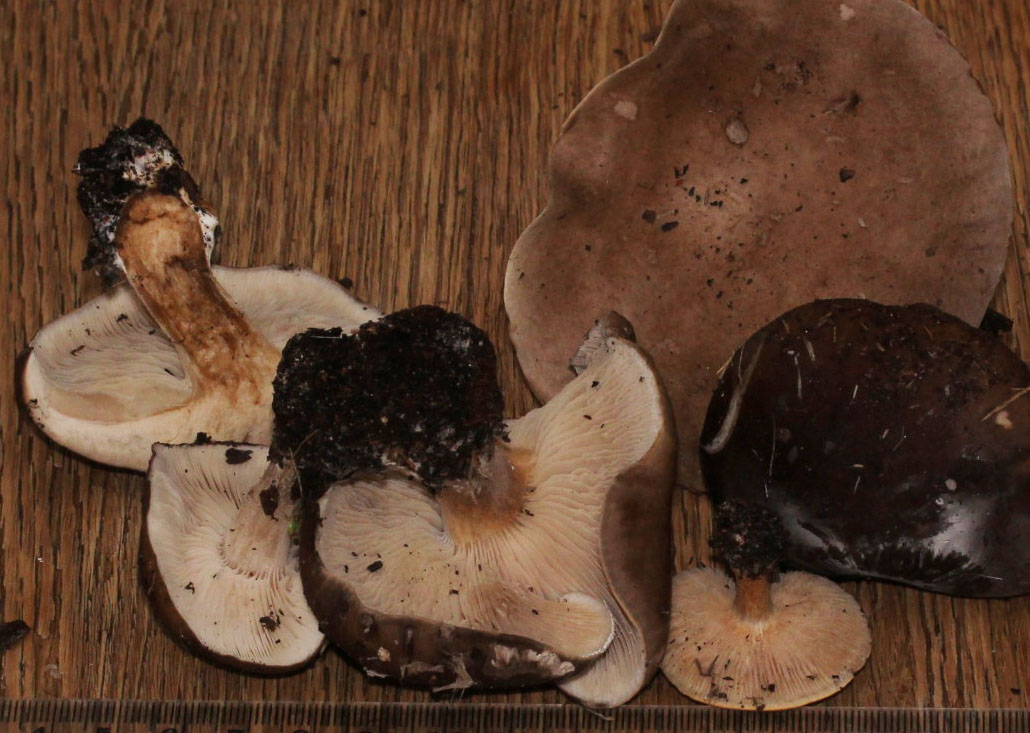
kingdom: Fungi
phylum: Basidiomycota
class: Agaricomycetes
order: Agaricales
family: Tricholomataceae
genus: Melanoleuca
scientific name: Melanoleuca
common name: munkehat
